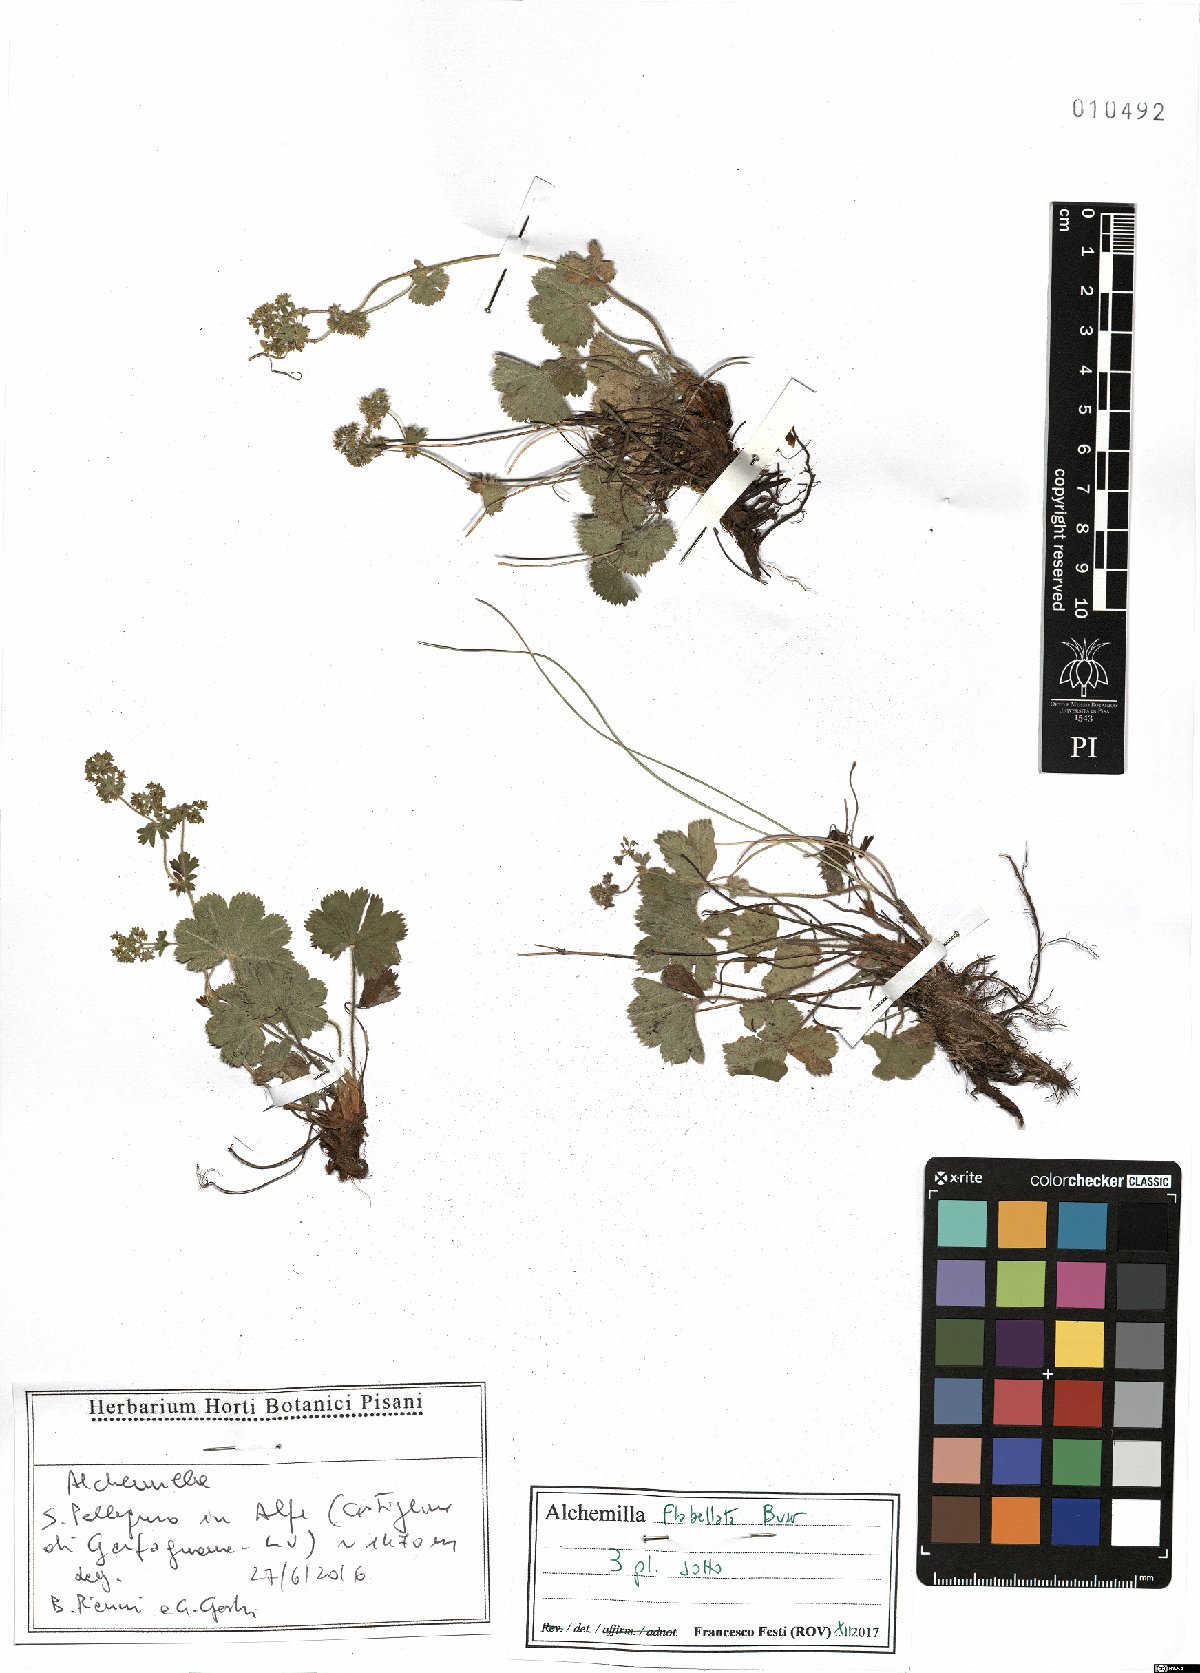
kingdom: Plantae
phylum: Tracheophyta
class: Magnoliopsida
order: Rosales
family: Rosaceae
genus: Alchemilla
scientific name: Alchemilla flabellata
